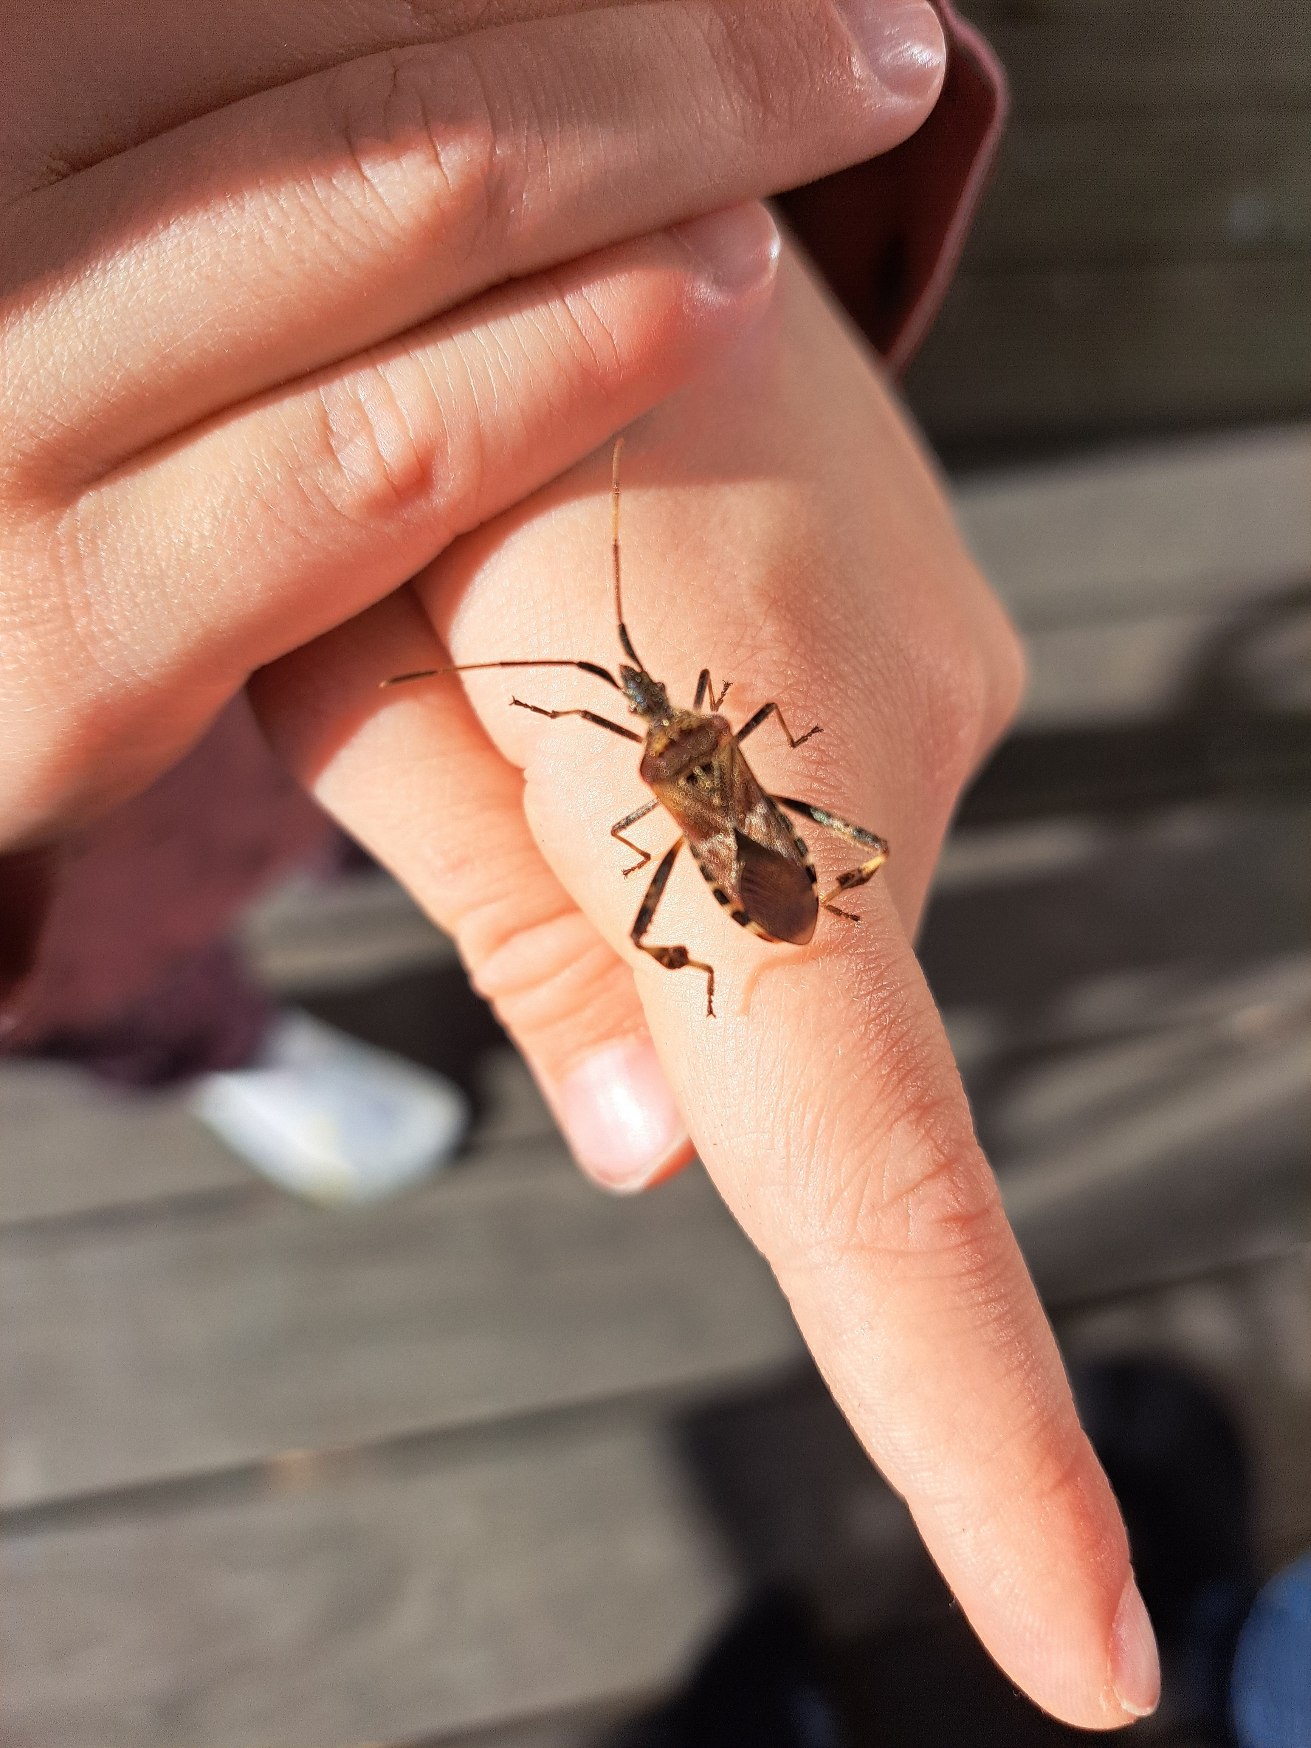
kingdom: Animalia
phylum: Arthropoda
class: Insecta
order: Hemiptera
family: Coreidae
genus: Leptoglossus
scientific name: Leptoglossus occidentalis
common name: Amerikansk fyrretæge
